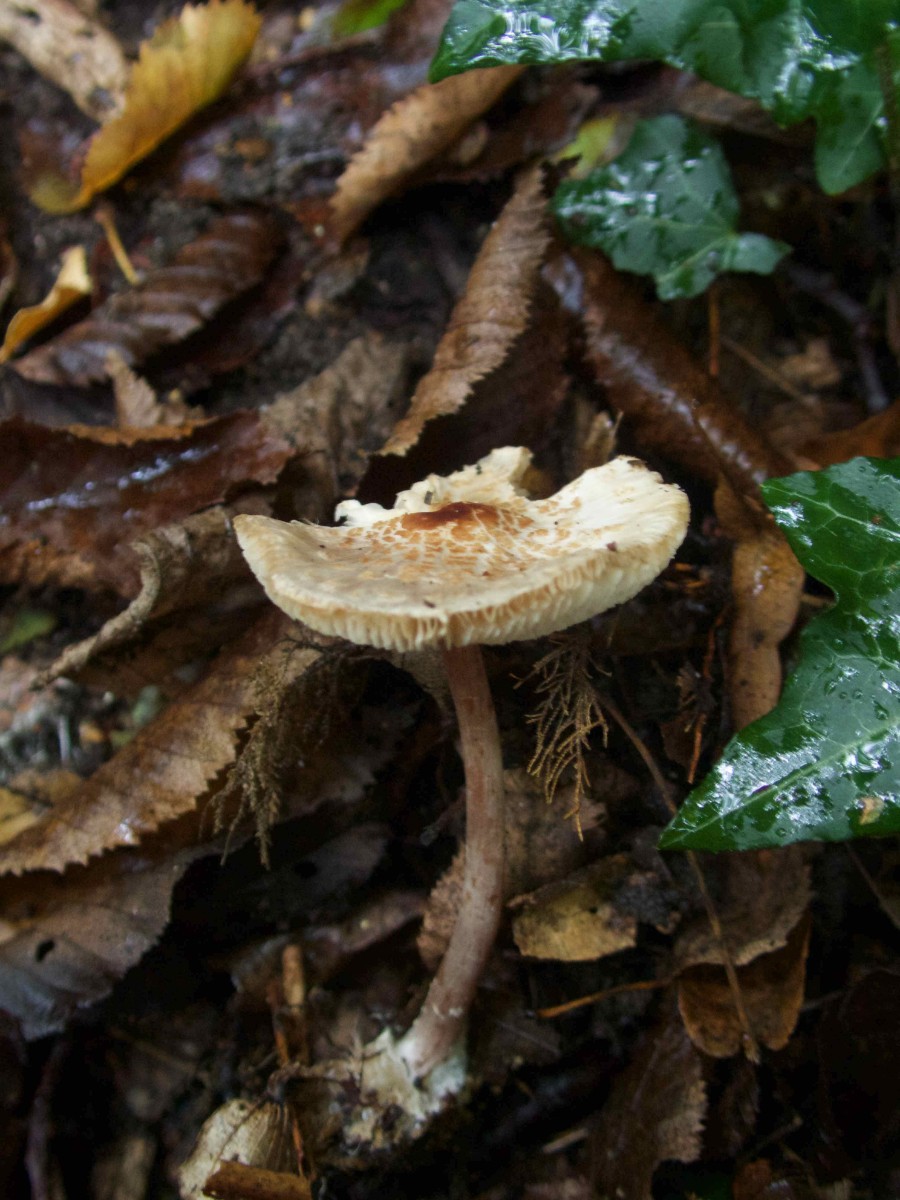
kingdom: Fungi
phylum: Basidiomycota
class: Agaricomycetes
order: Agaricales
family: Agaricaceae
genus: Lepiota
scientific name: Lepiota cristata
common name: stinkende parasolhat
